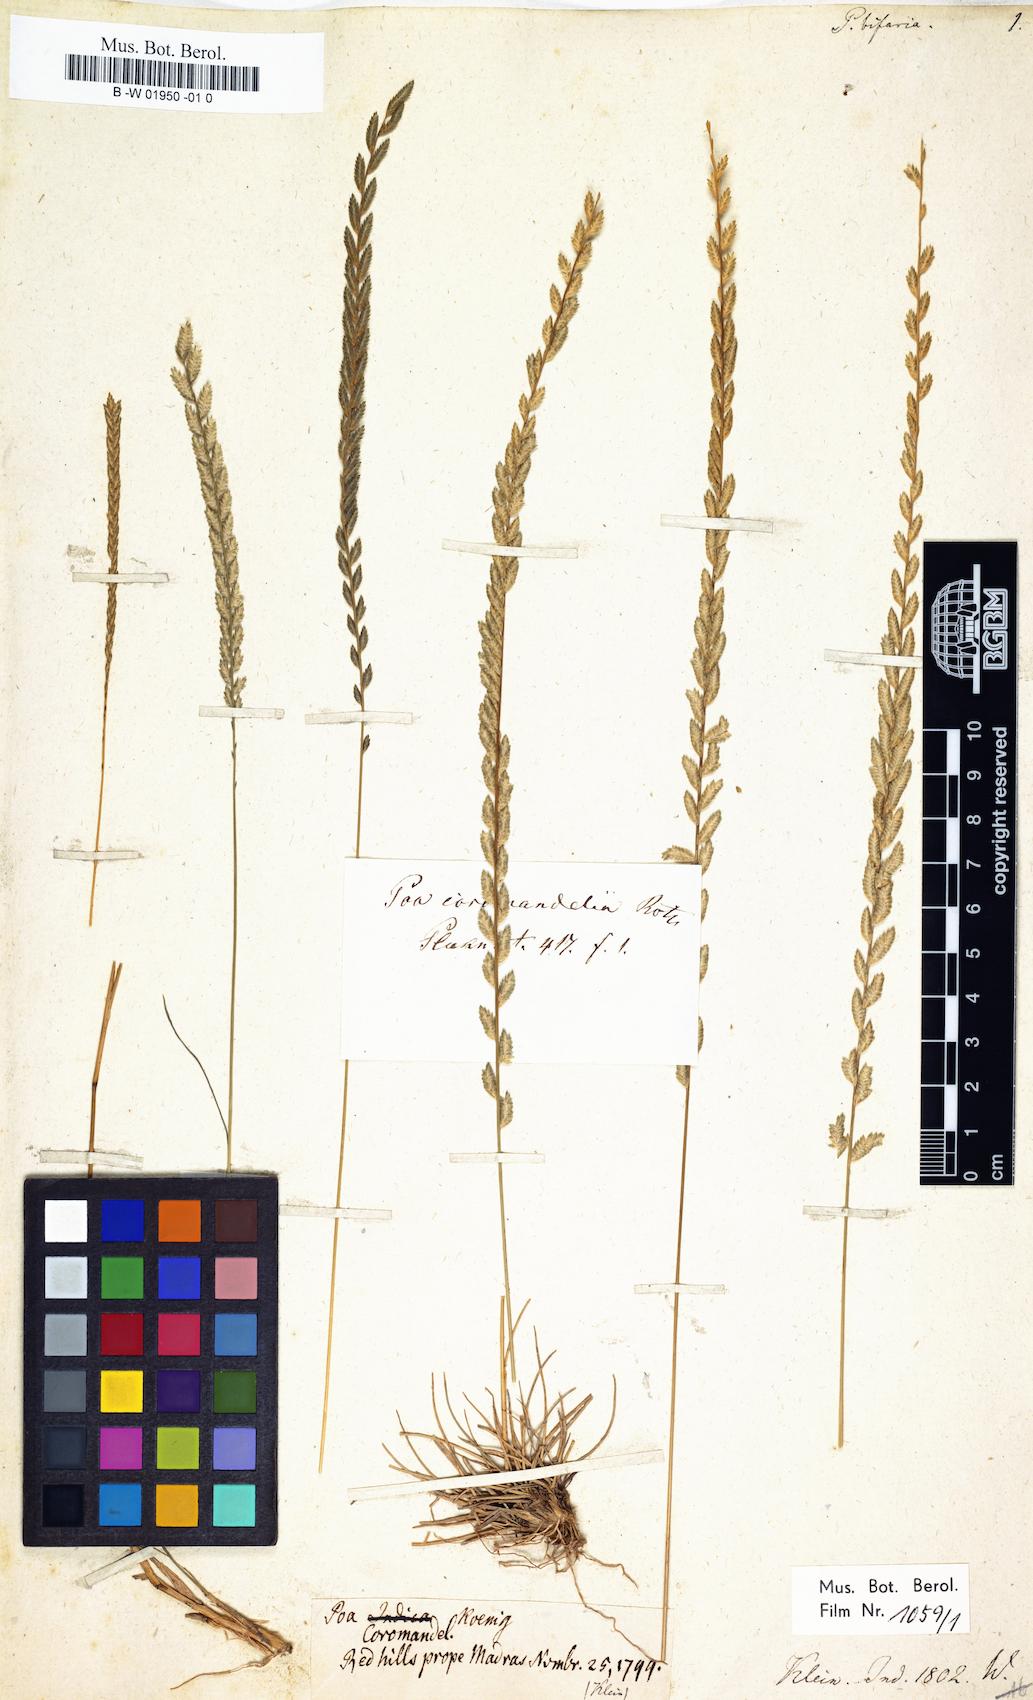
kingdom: Plantae
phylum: Tracheophyta
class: Liliopsida
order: Poales
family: Poaceae
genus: Eragrostiella
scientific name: Eragrostiella bifaria
